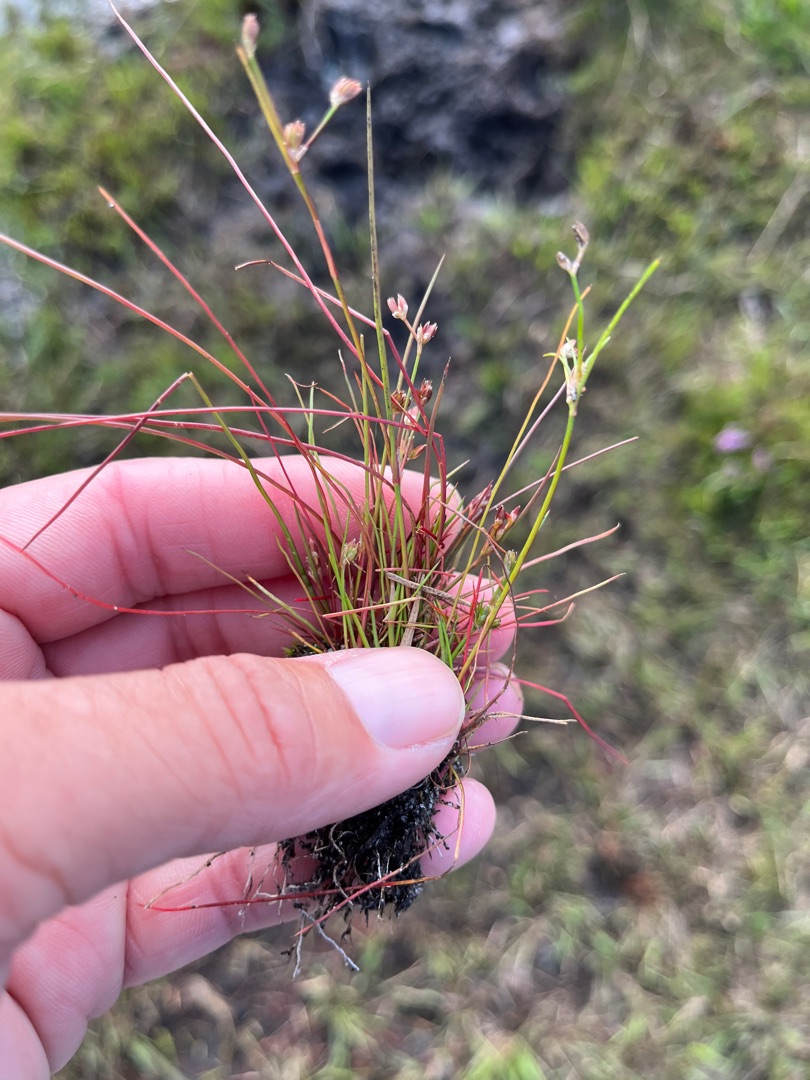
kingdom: Plantae
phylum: Tracheophyta
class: Liliopsida
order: Poales
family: Juncaceae
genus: Juncus
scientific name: Juncus bulbosus
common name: Liden siv
